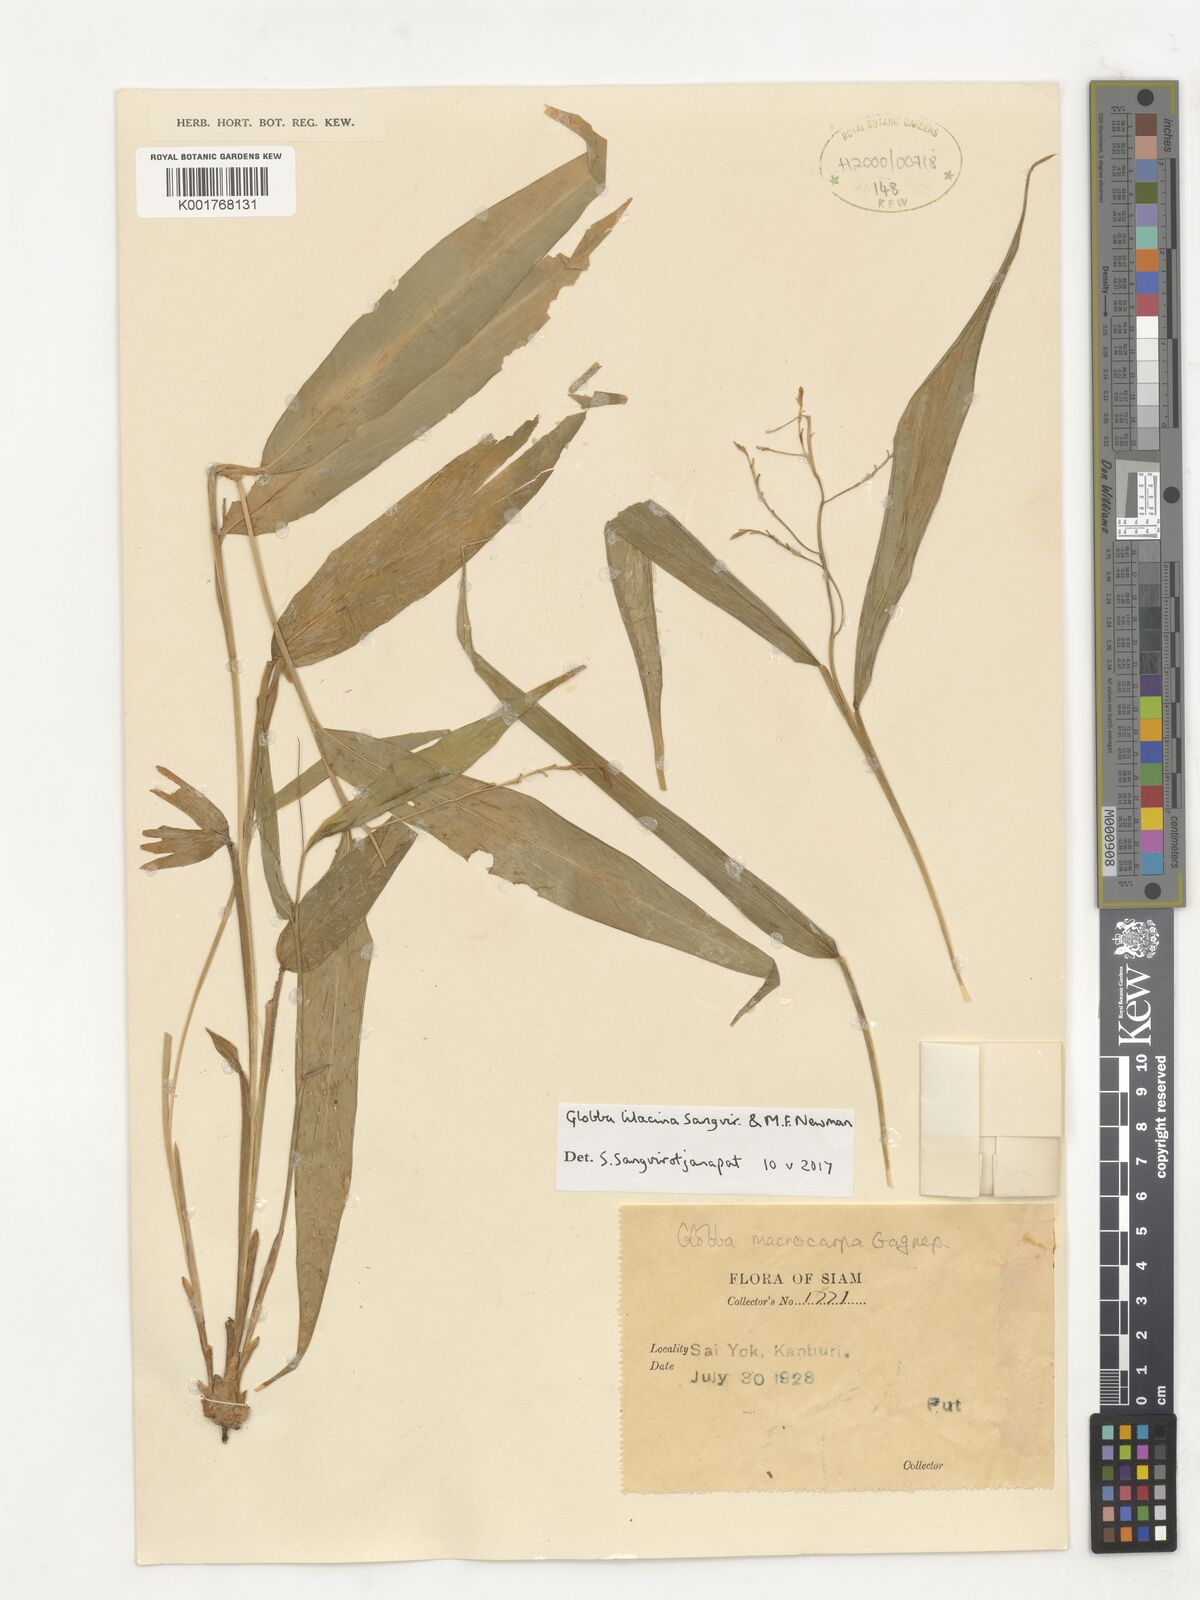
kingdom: Plantae
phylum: Tracheophyta
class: Liliopsida
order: Zingiberales
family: Zingiberaceae
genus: Globba
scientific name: Globba
